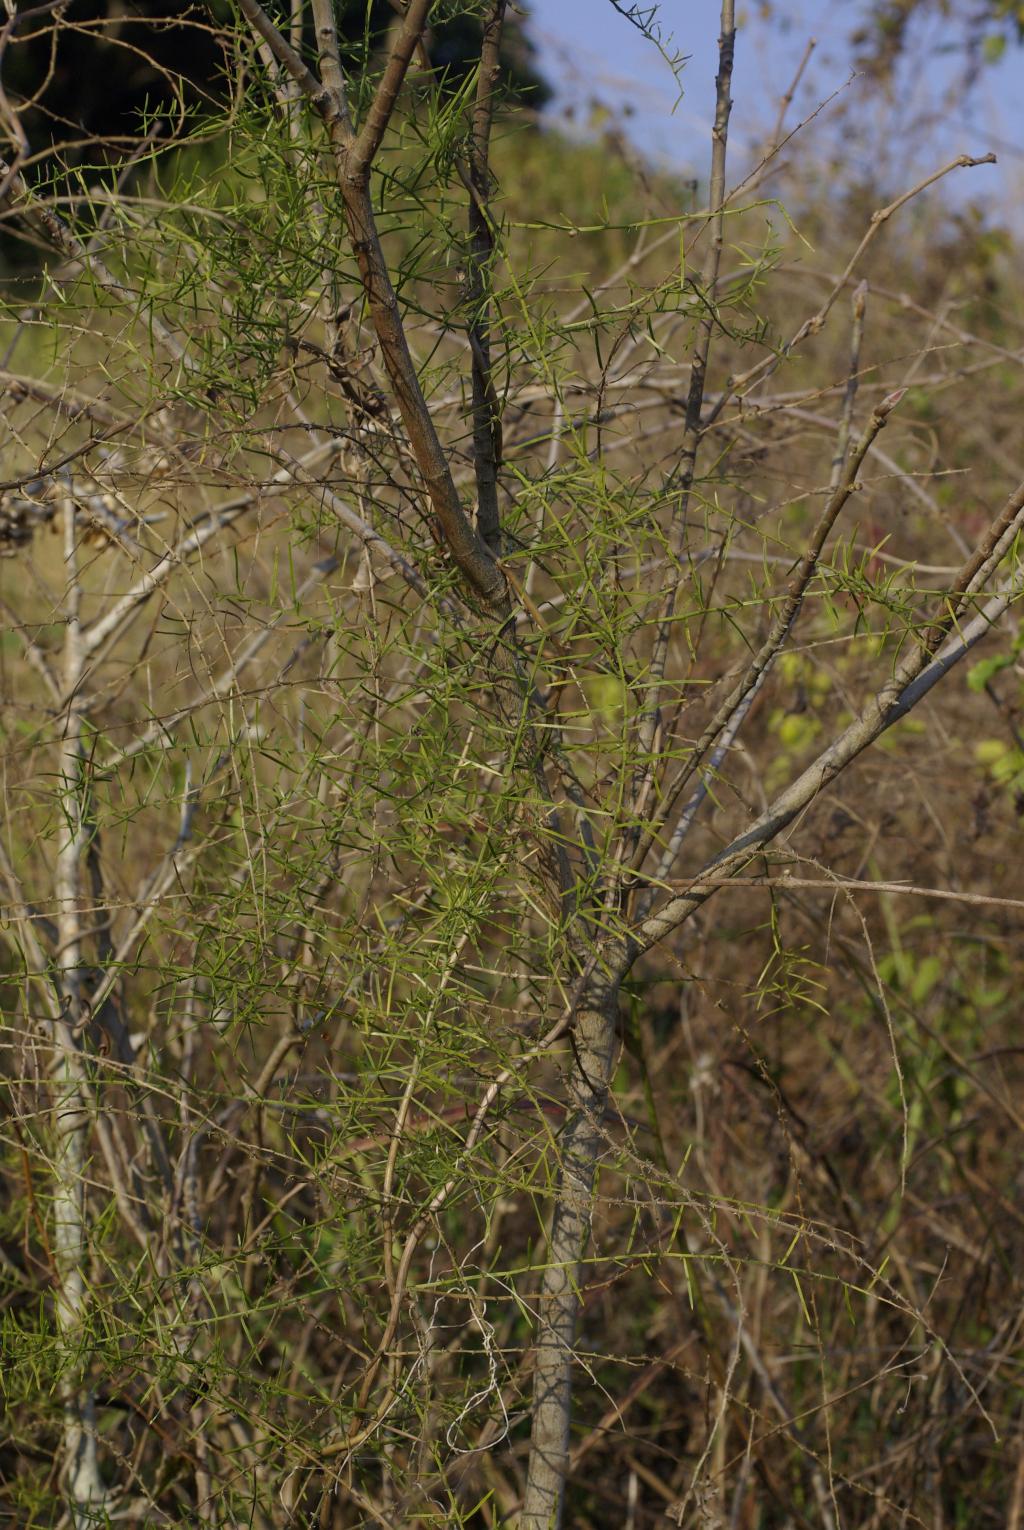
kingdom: Plantae
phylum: Tracheophyta
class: Liliopsida
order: Asparagales
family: Asparagaceae
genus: Asparagus
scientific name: Asparagus cochinchinensis
